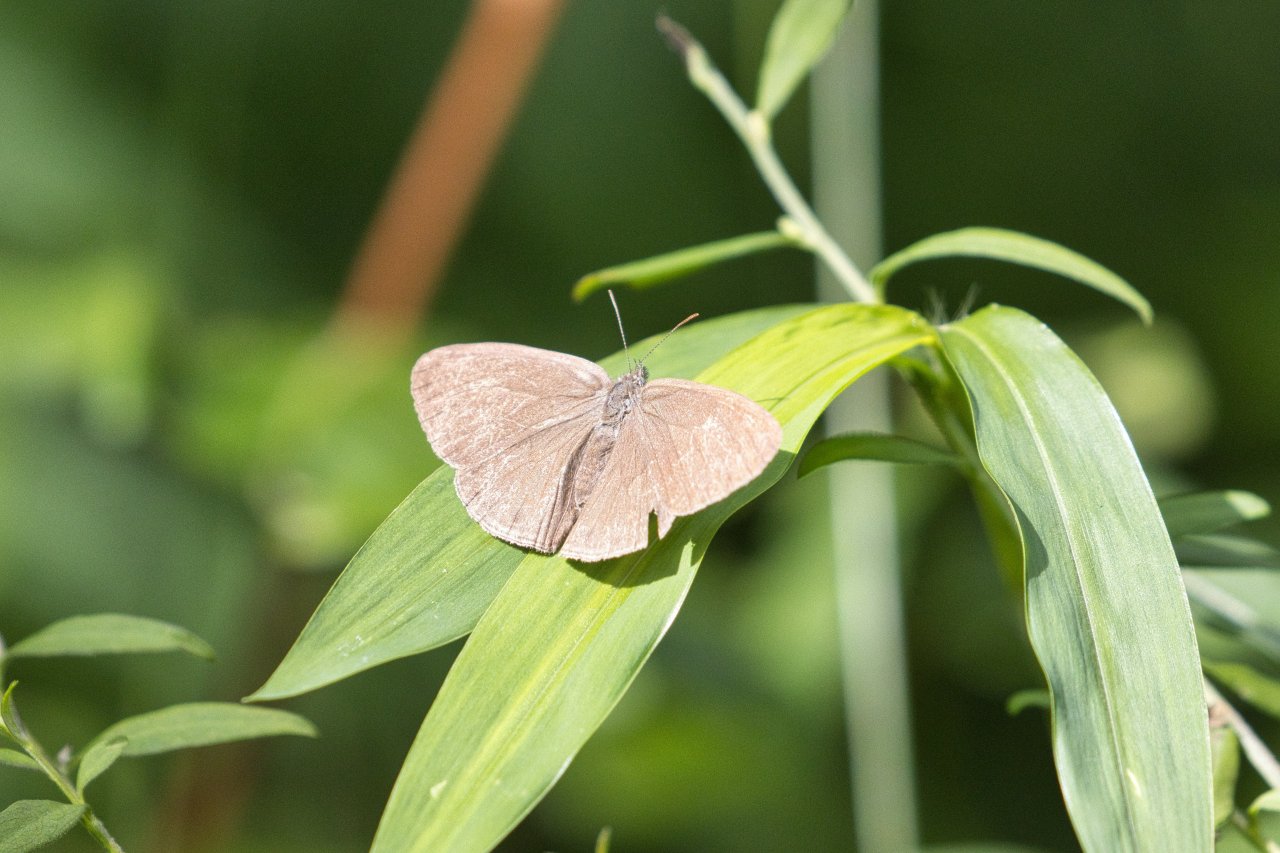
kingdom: Animalia
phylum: Arthropoda
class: Insecta
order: Lepidoptera
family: Nymphalidae
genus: Hermeuptychia
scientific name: Hermeuptychia
